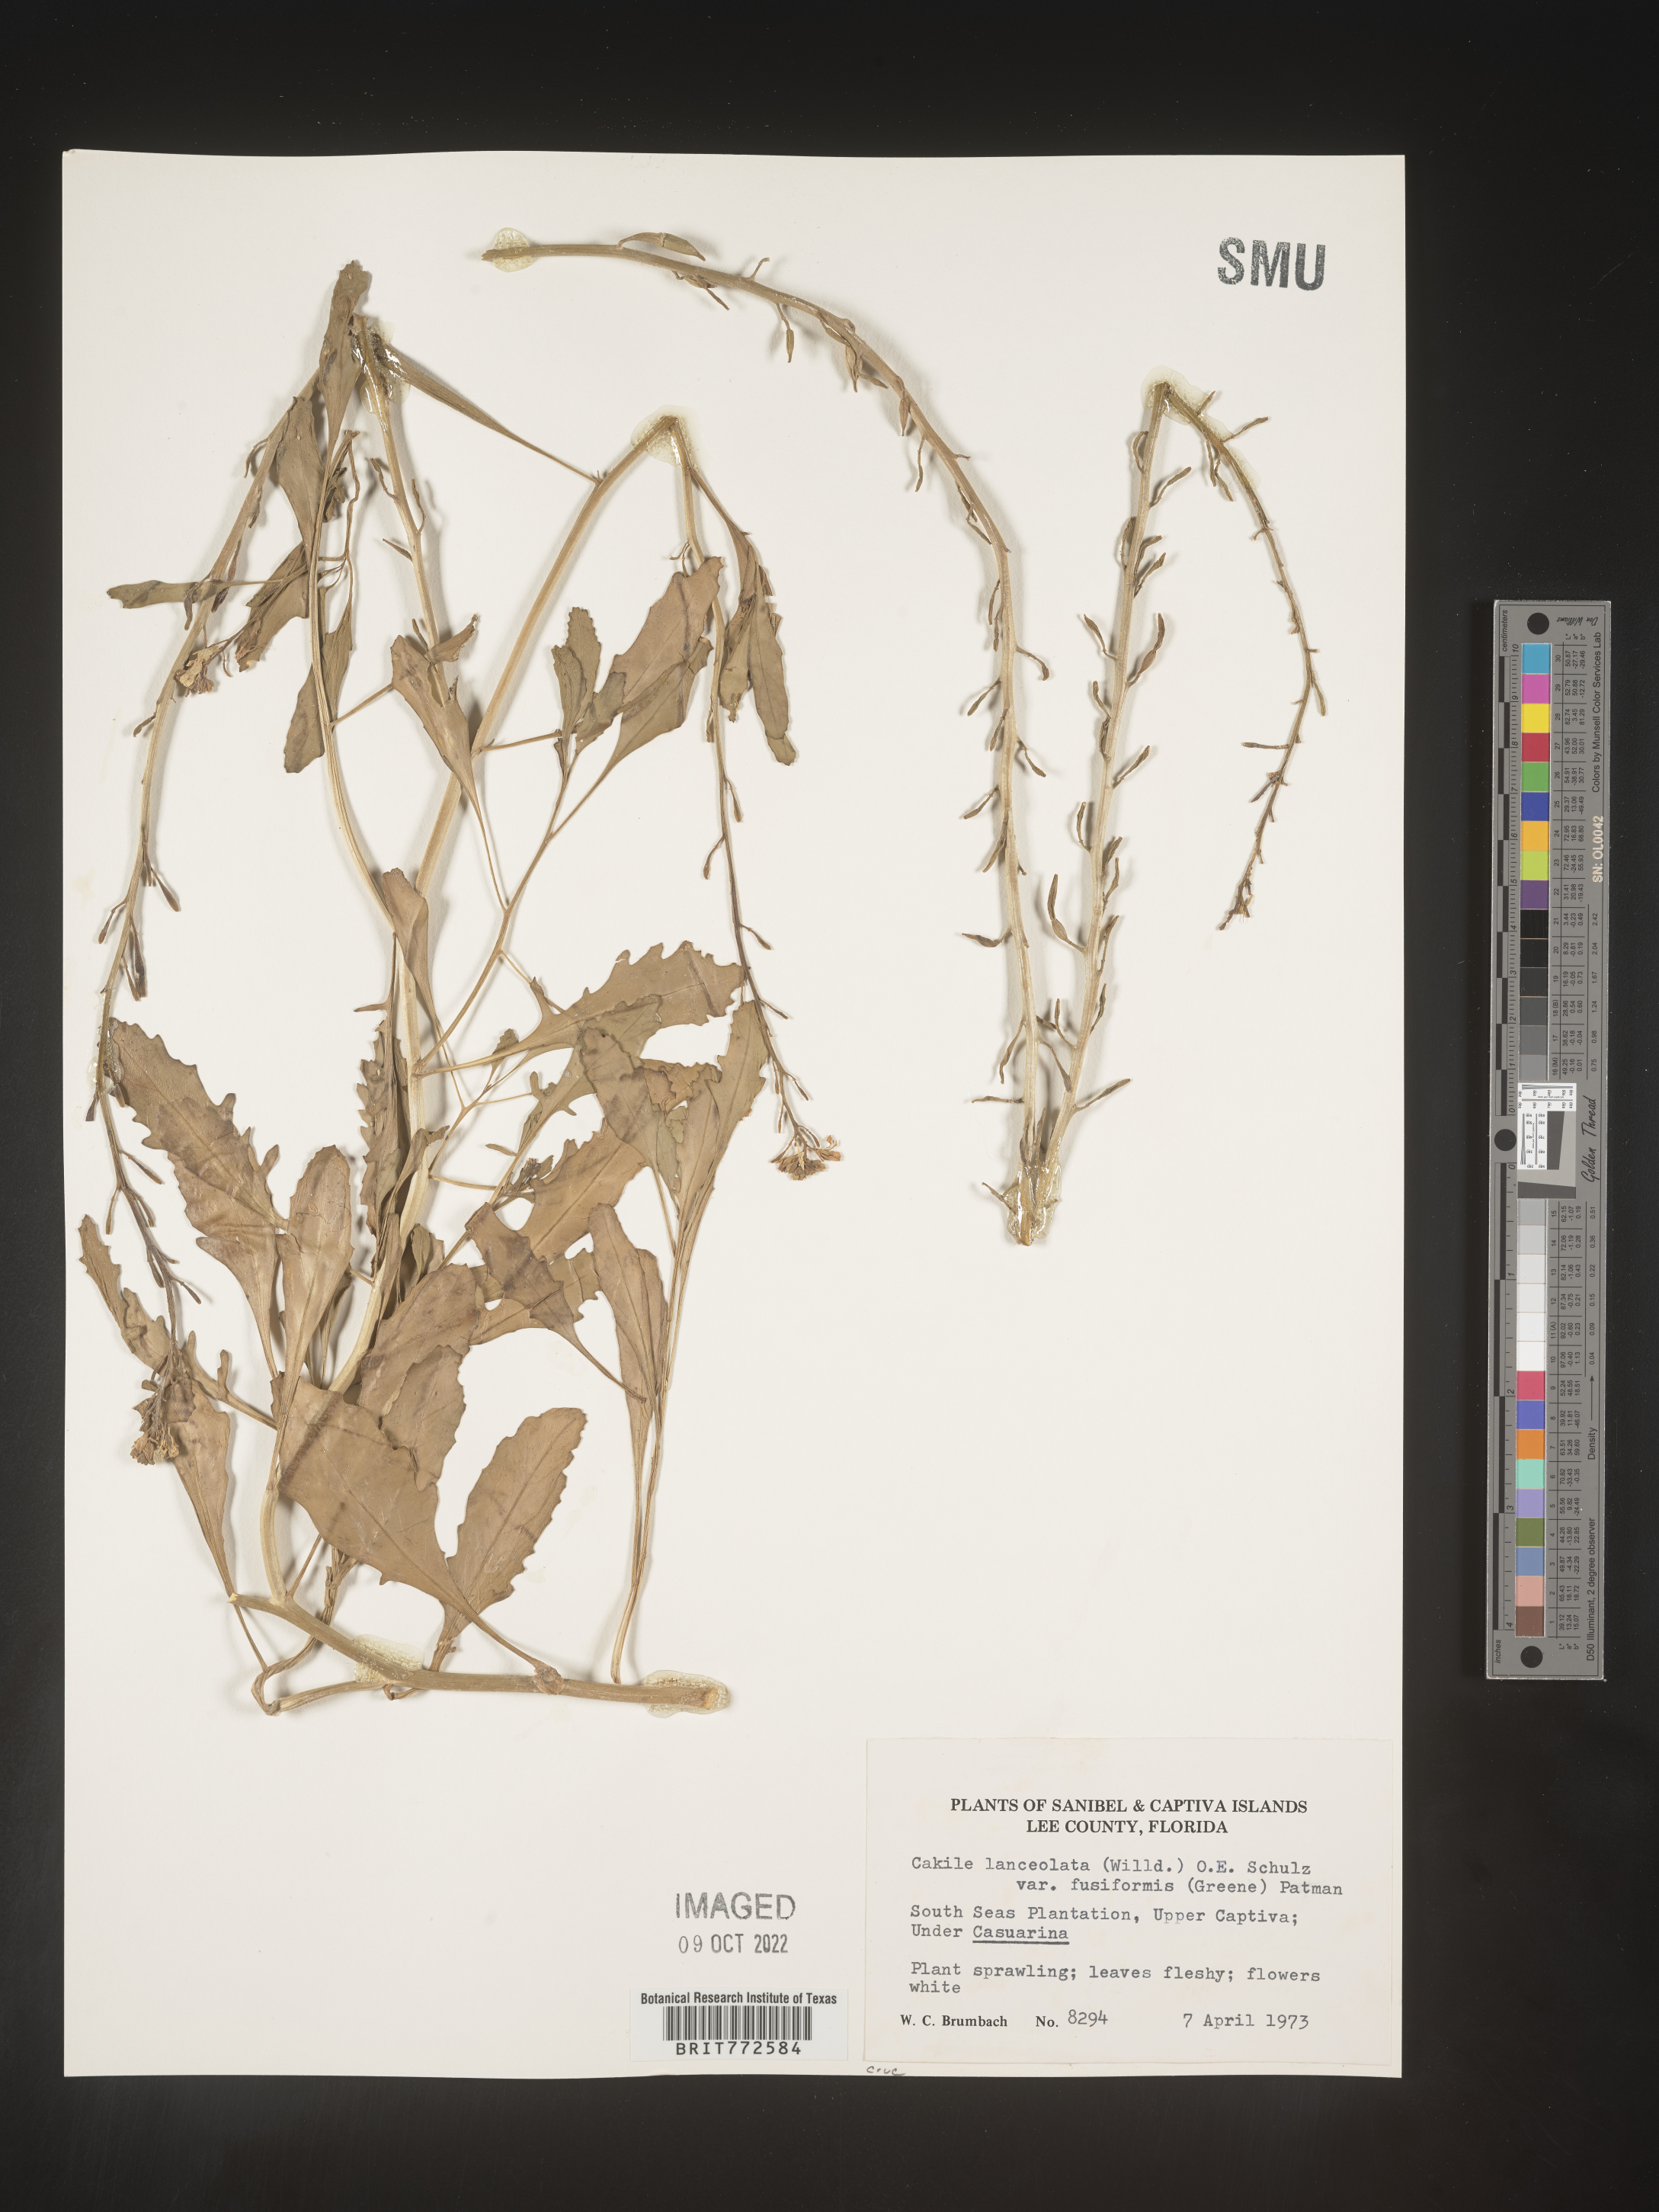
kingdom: Plantae
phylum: Tracheophyta
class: Magnoliopsida
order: Brassicales
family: Brassicaceae
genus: Cakile
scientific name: Cakile lanceolata
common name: Sea rocket
